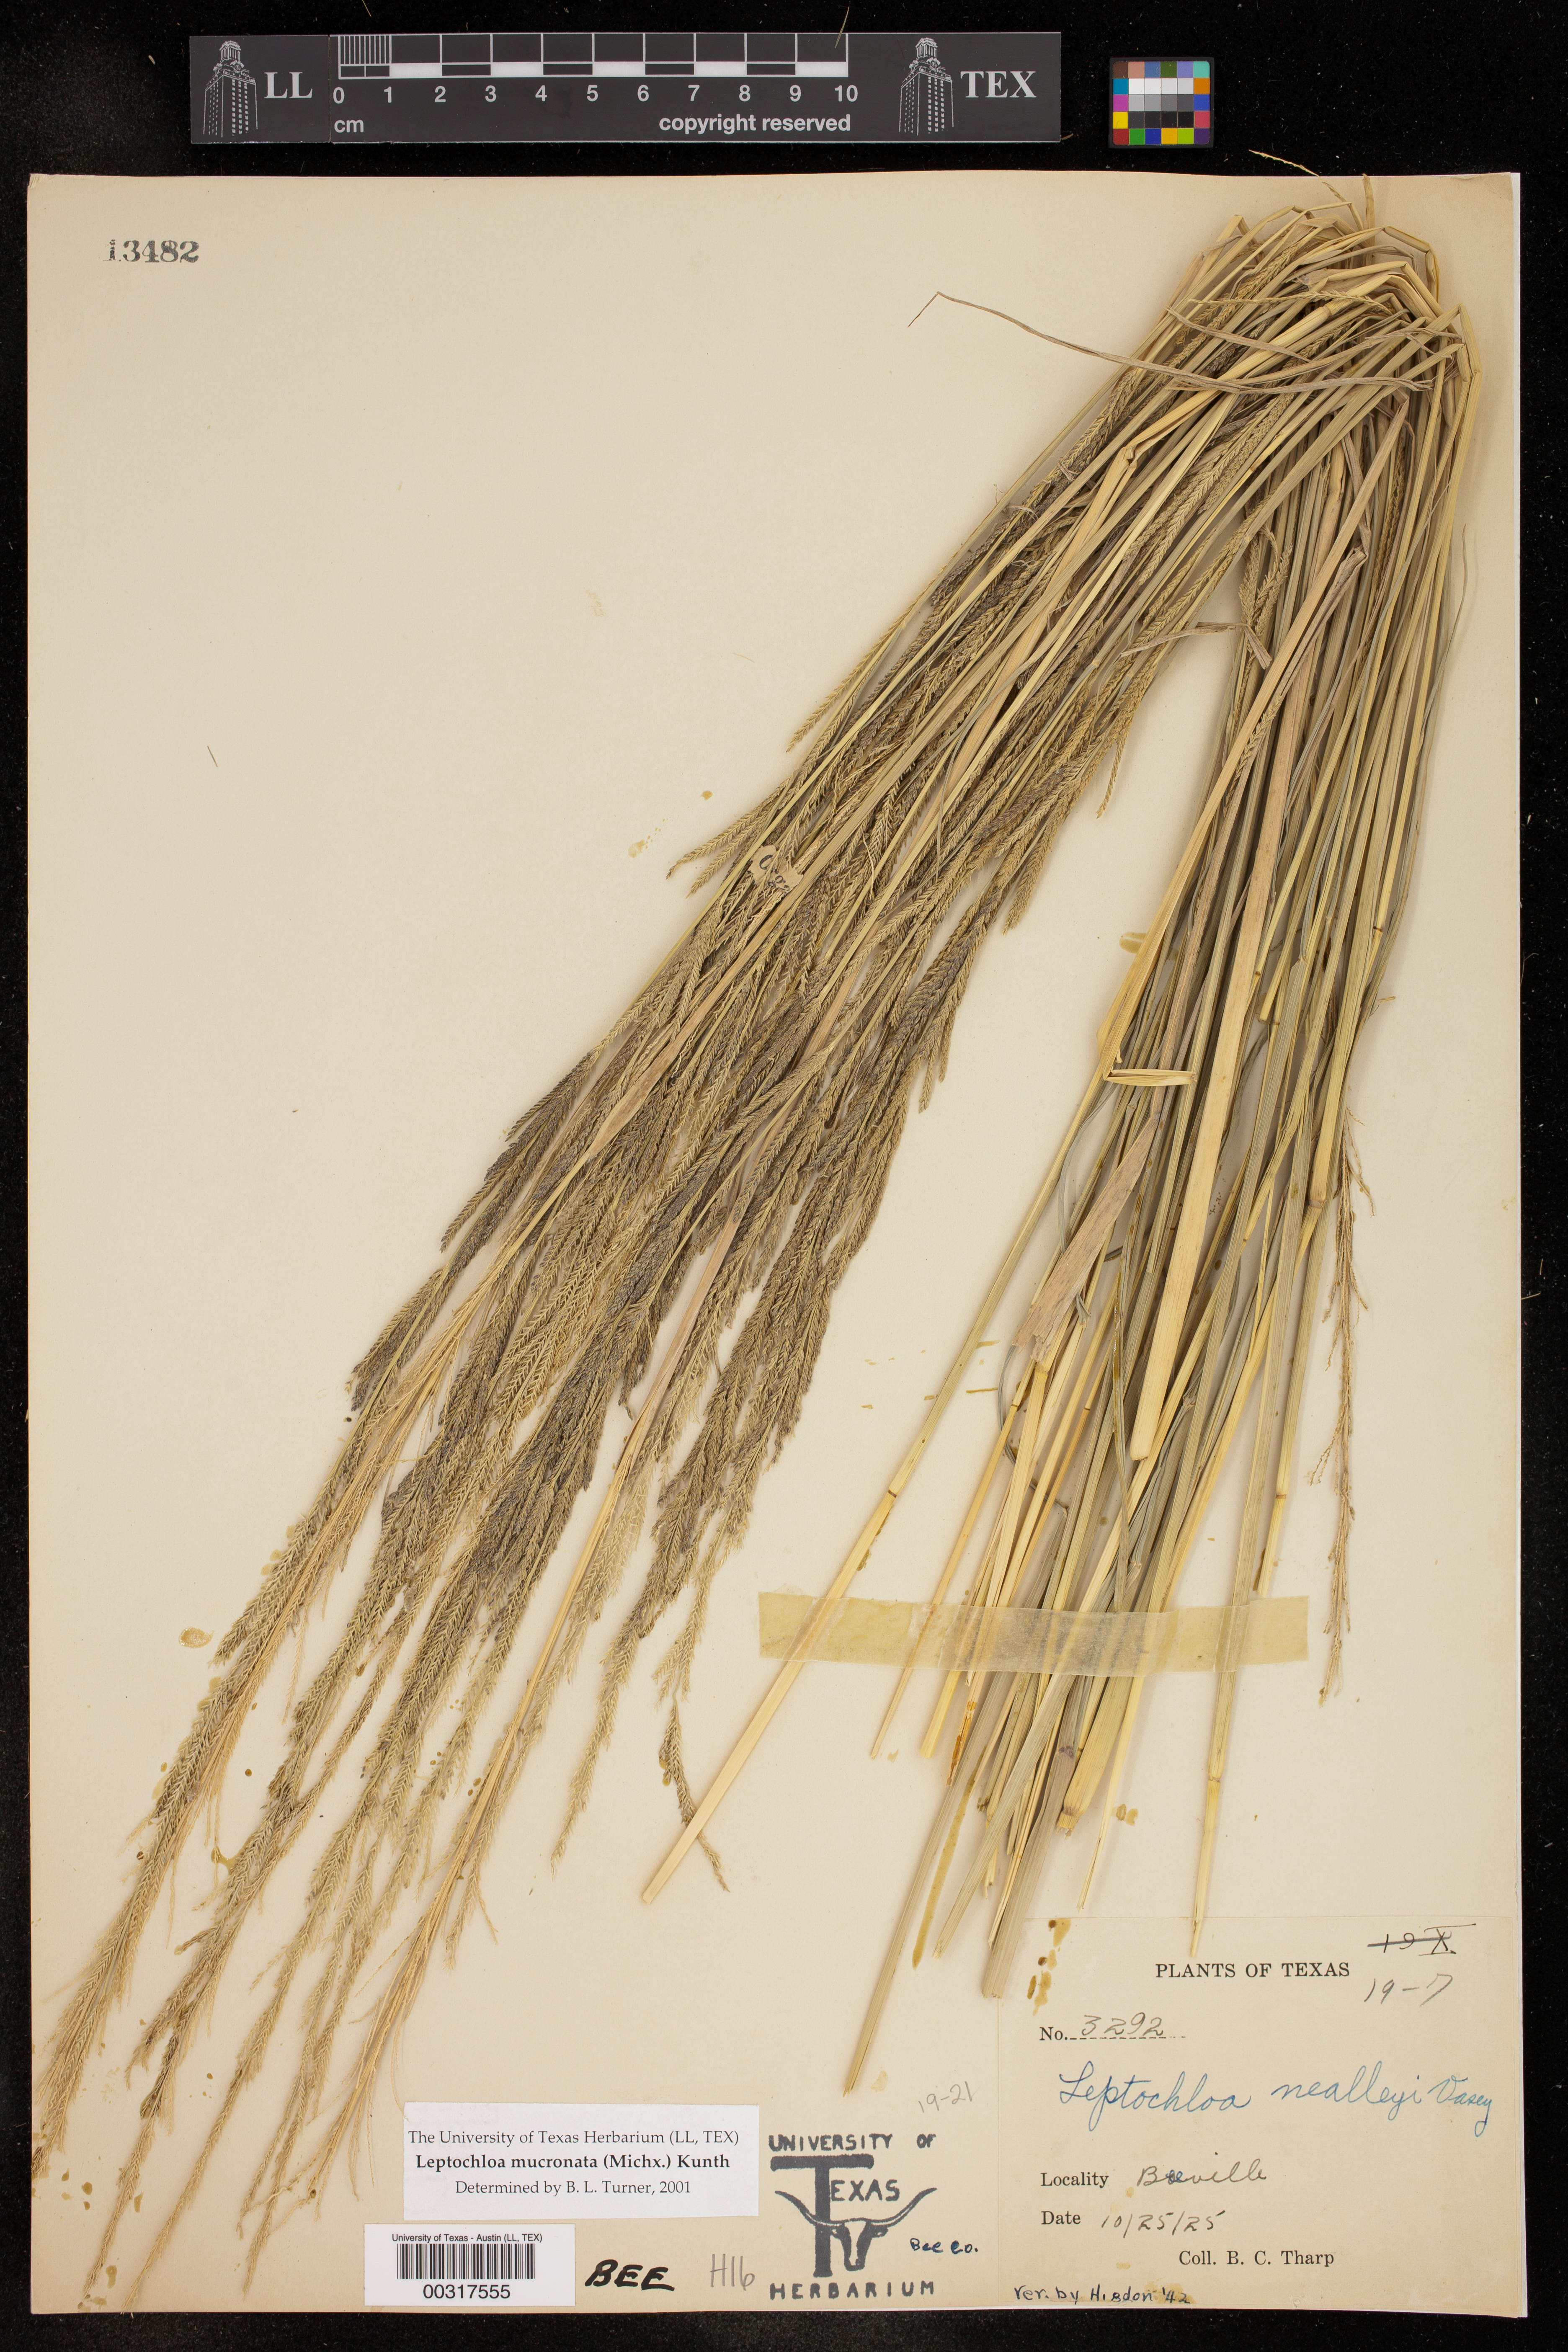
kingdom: Plantae
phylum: Tracheophyta
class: Liliopsida
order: Poales
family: Poaceae
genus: Leptochloa
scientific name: Leptochloa mucronata
